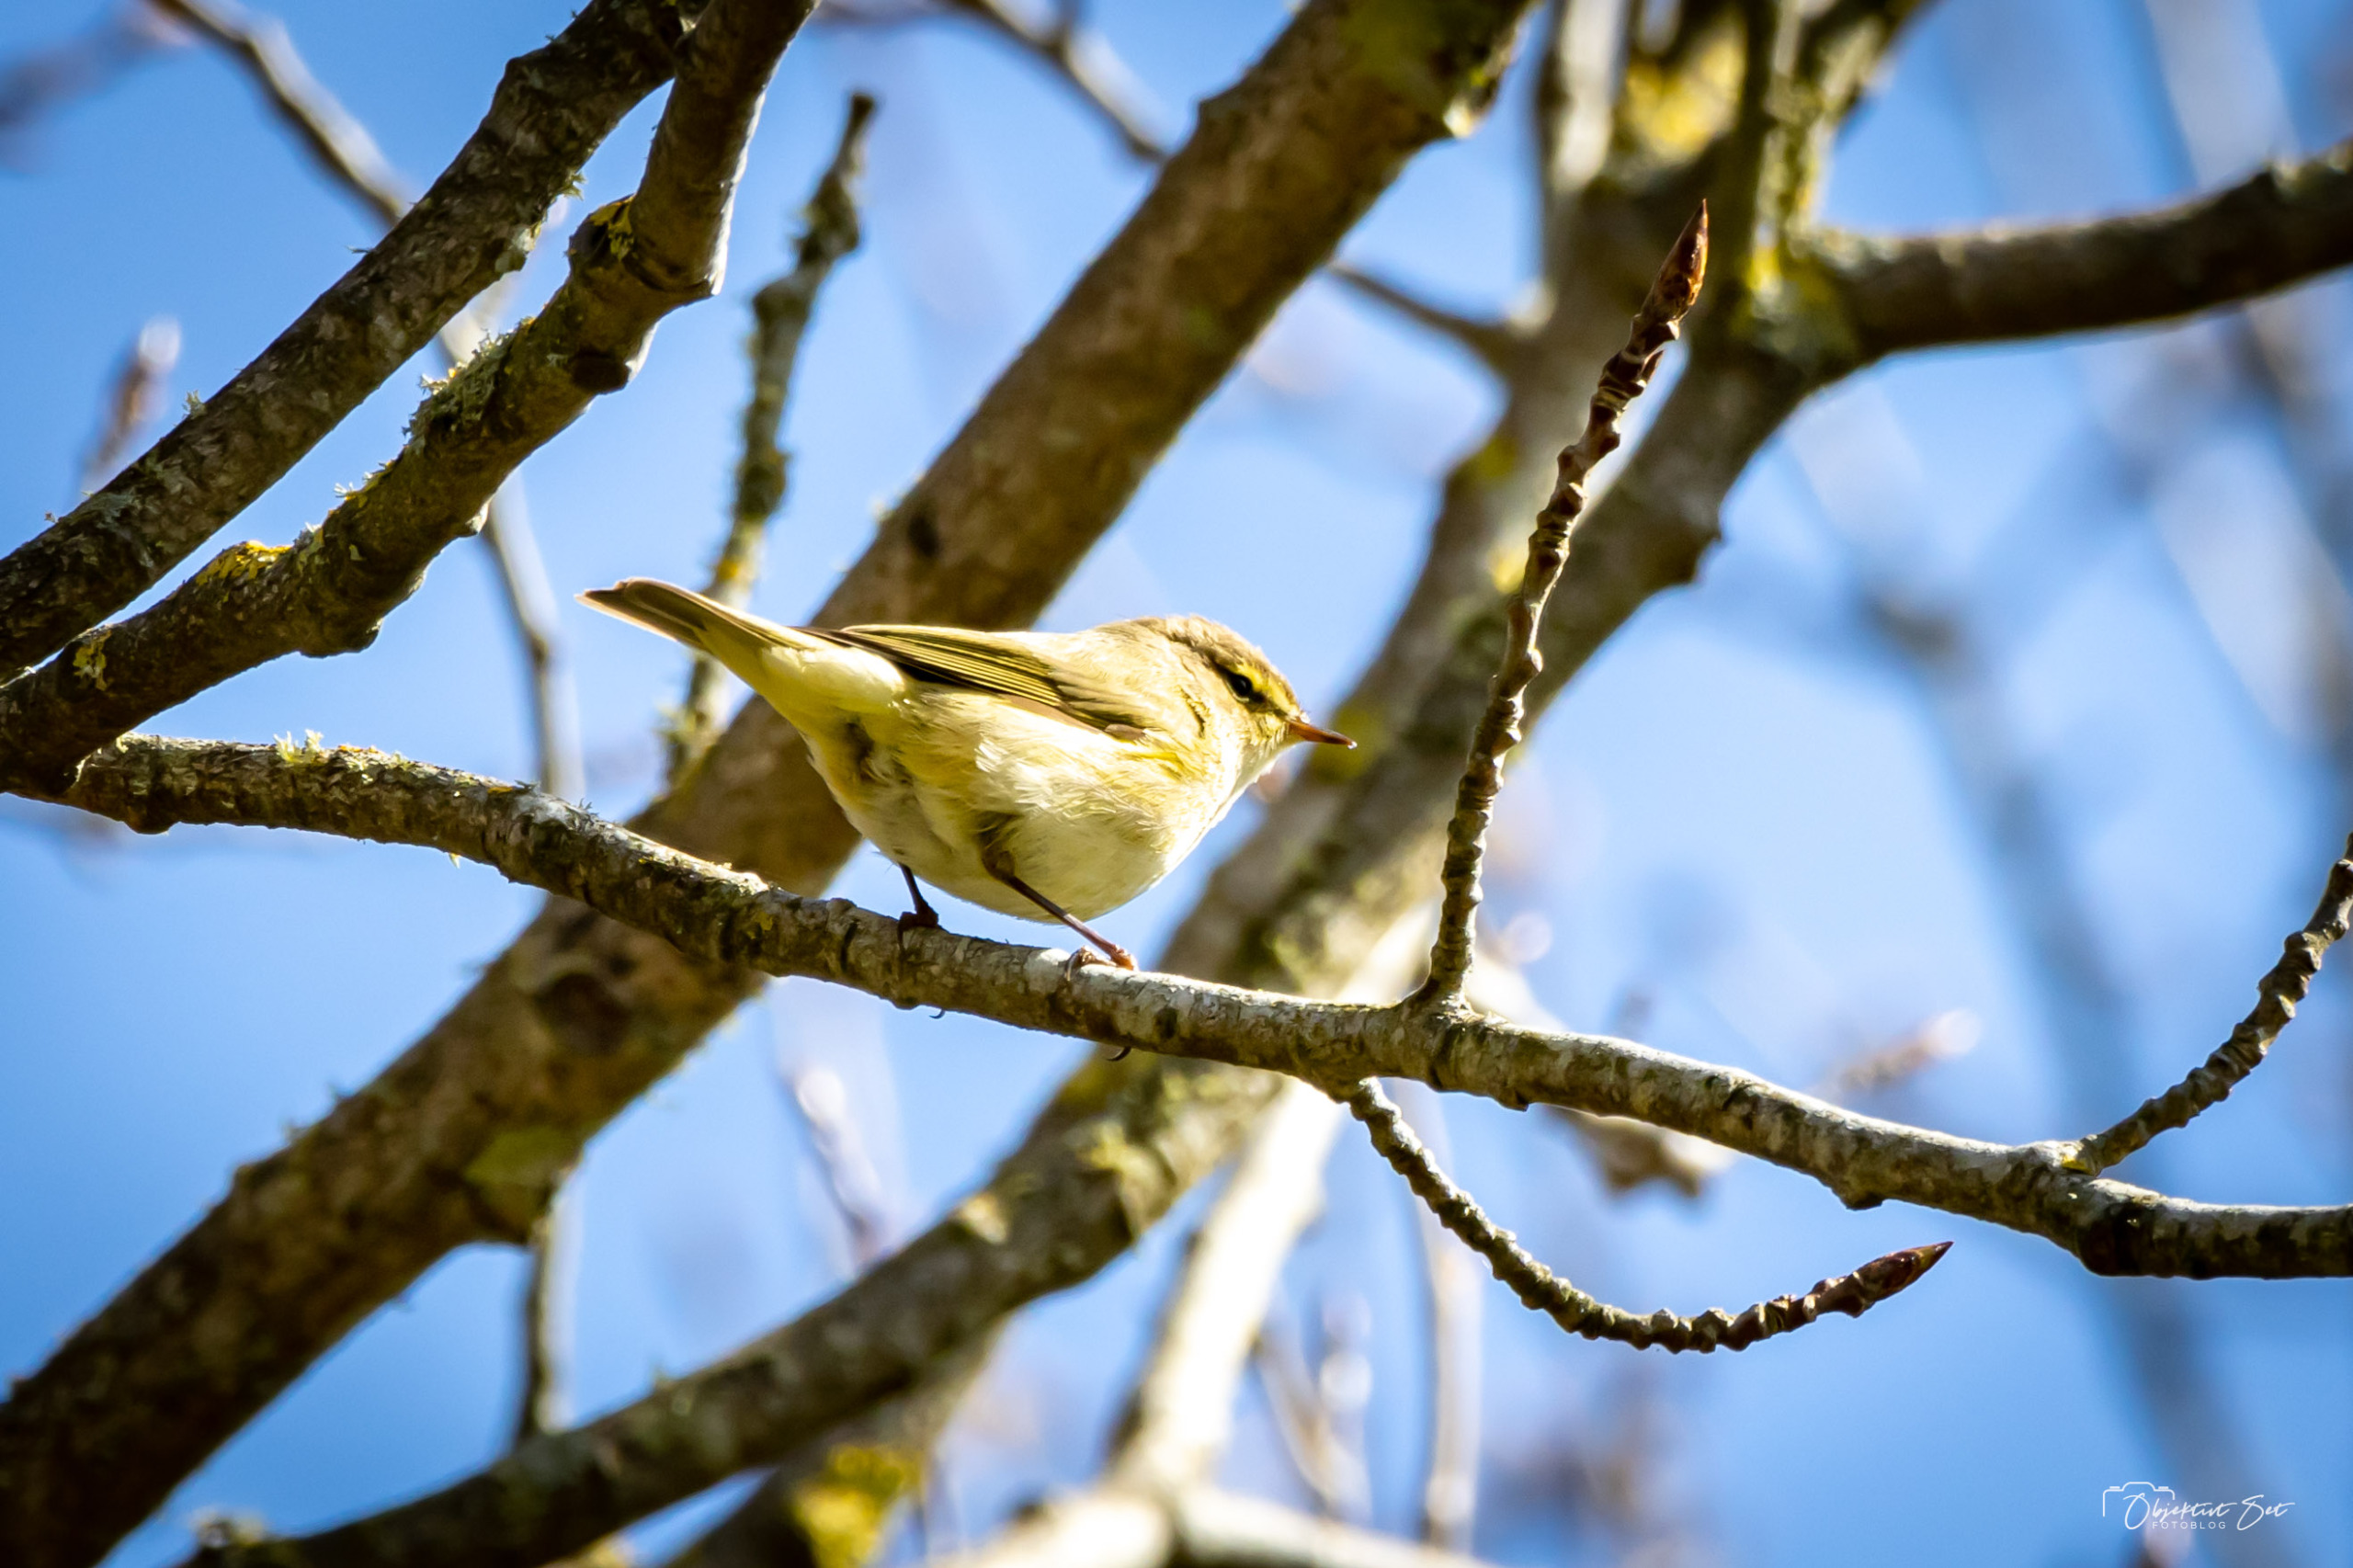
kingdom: Animalia
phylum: Chordata
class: Aves
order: Passeriformes
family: Phylloscopidae
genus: Phylloscopus
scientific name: Phylloscopus collybita
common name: Gransanger
